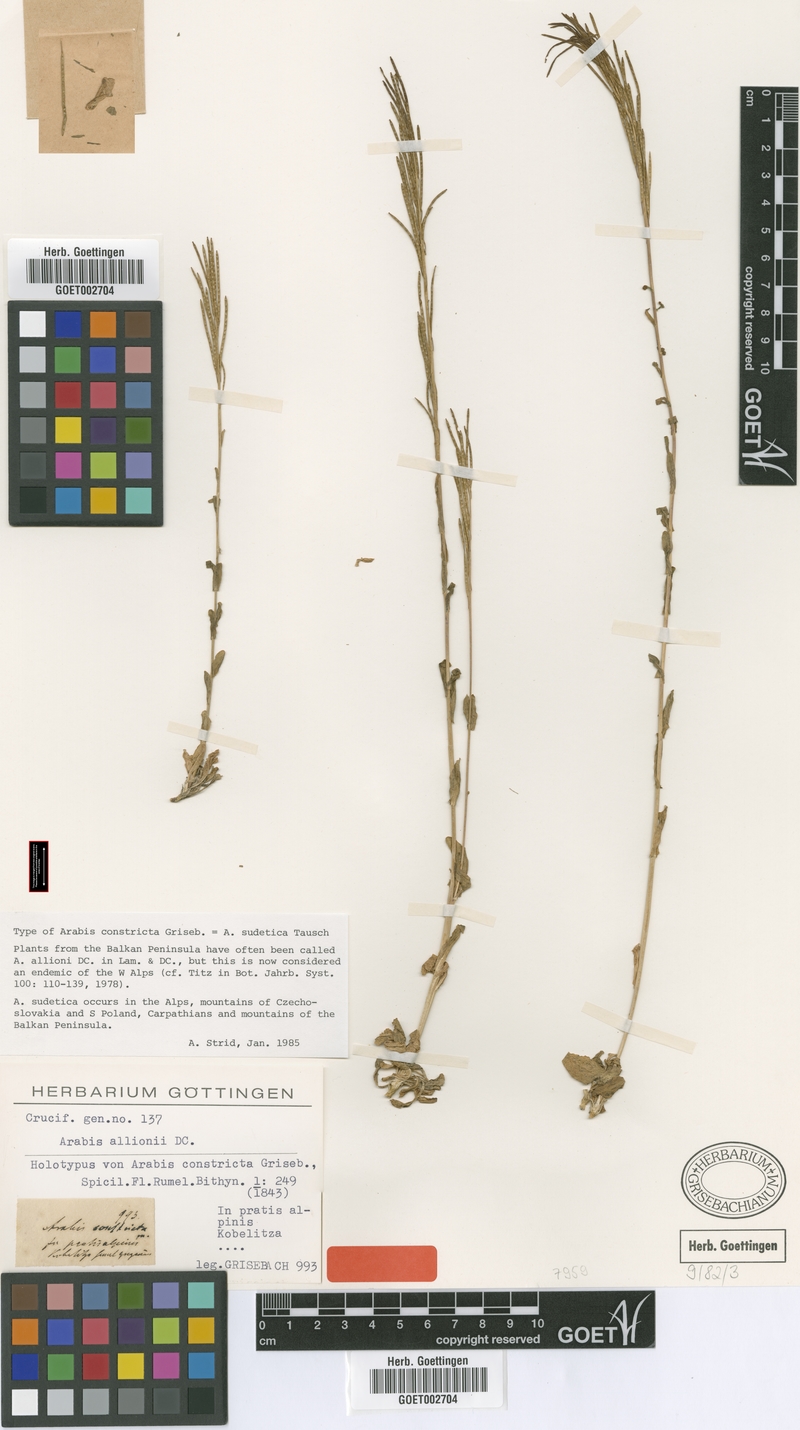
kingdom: Plantae
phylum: Tracheophyta
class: Magnoliopsida
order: Brassicales
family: Brassicaceae
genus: Arabis
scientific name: Arabis sudetica
